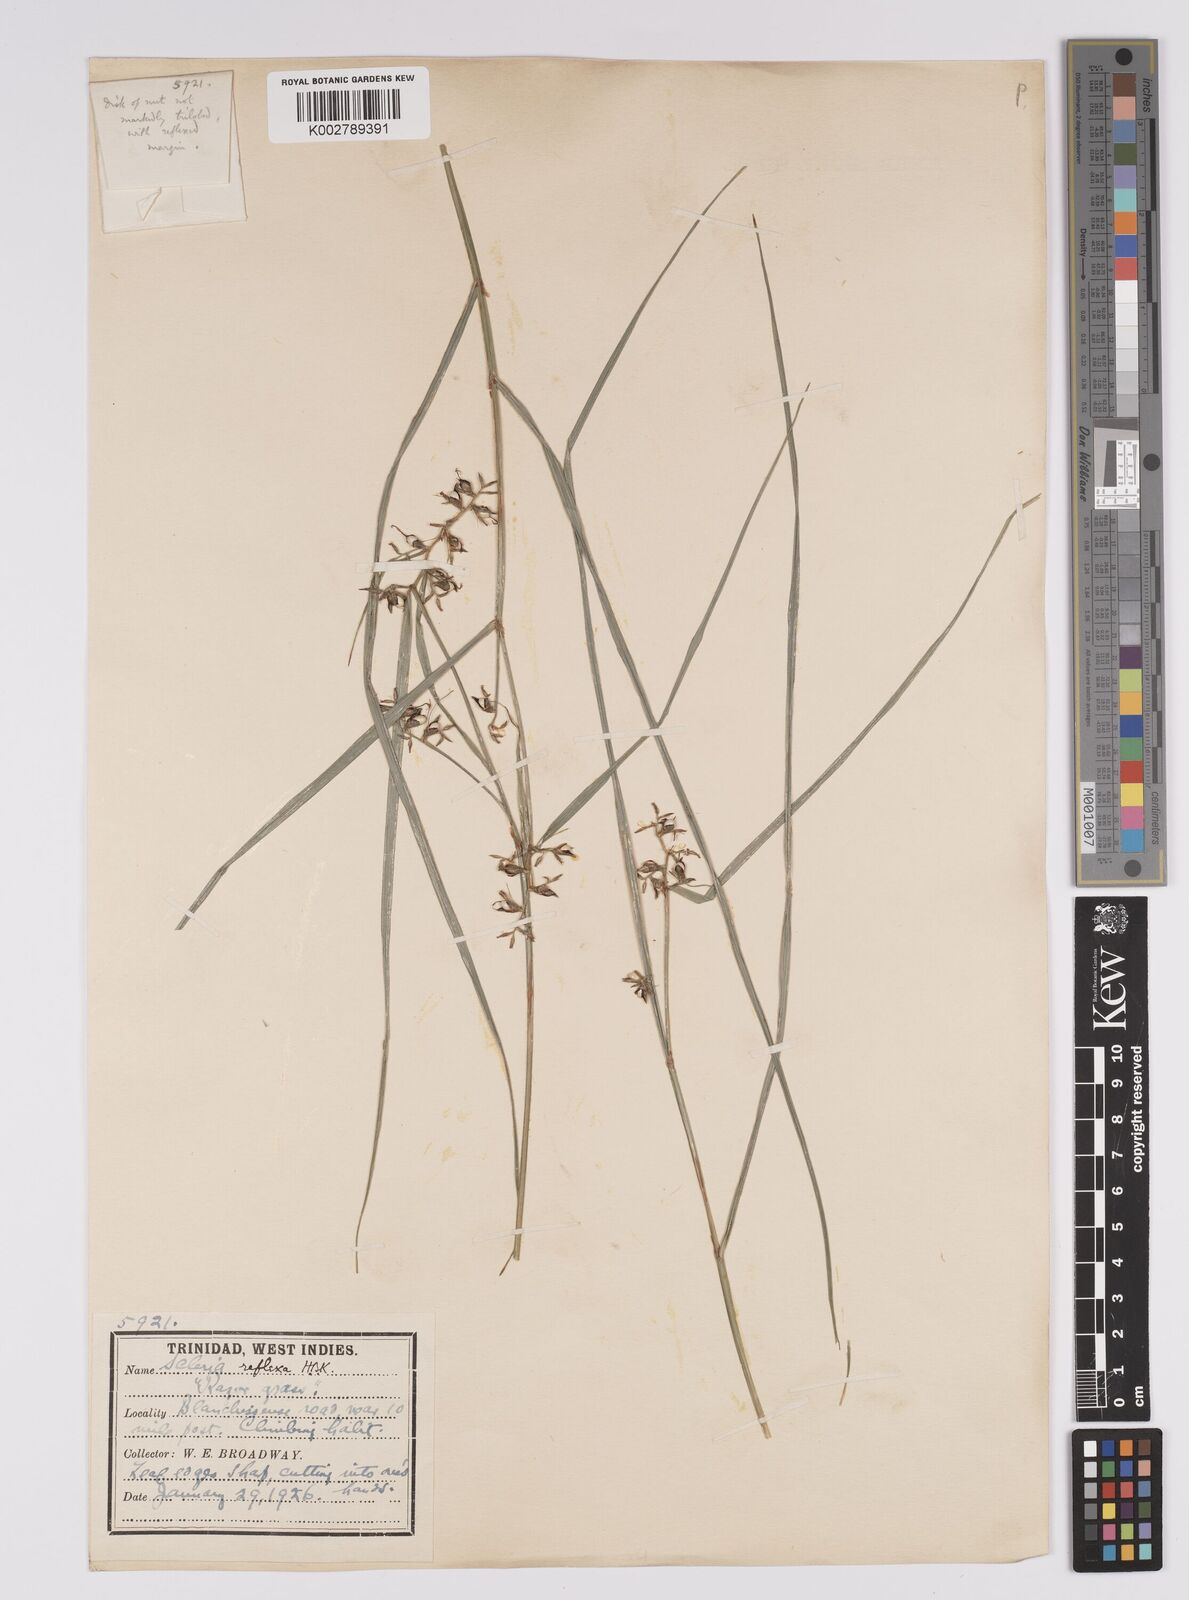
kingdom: Plantae
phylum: Tracheophyta
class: Liliopsida
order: Poales
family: Cyperaceae
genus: Scleria
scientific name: Scleria secans
